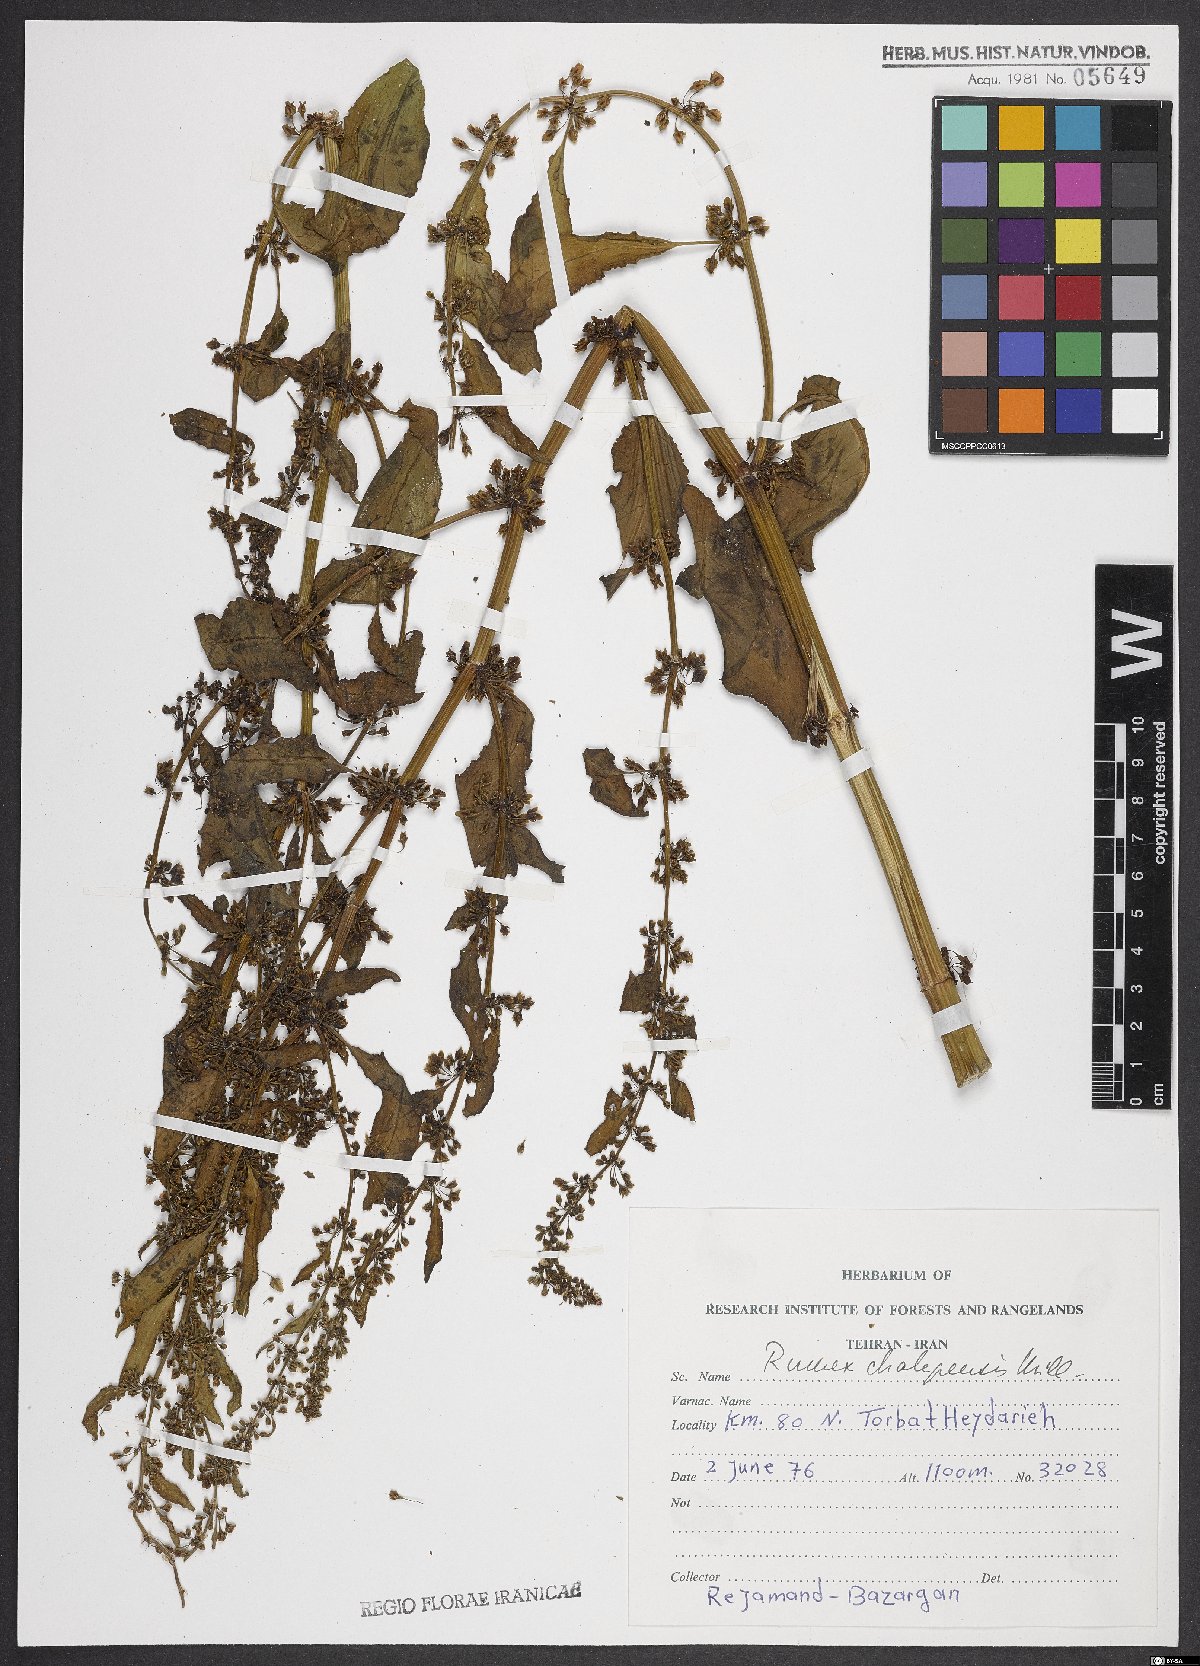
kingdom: Plantae
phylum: Tracheophyta
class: Magnoliopsida
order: Caryophyllales
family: Polygonaceae
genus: Rumex
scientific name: Rumex chalepensis
